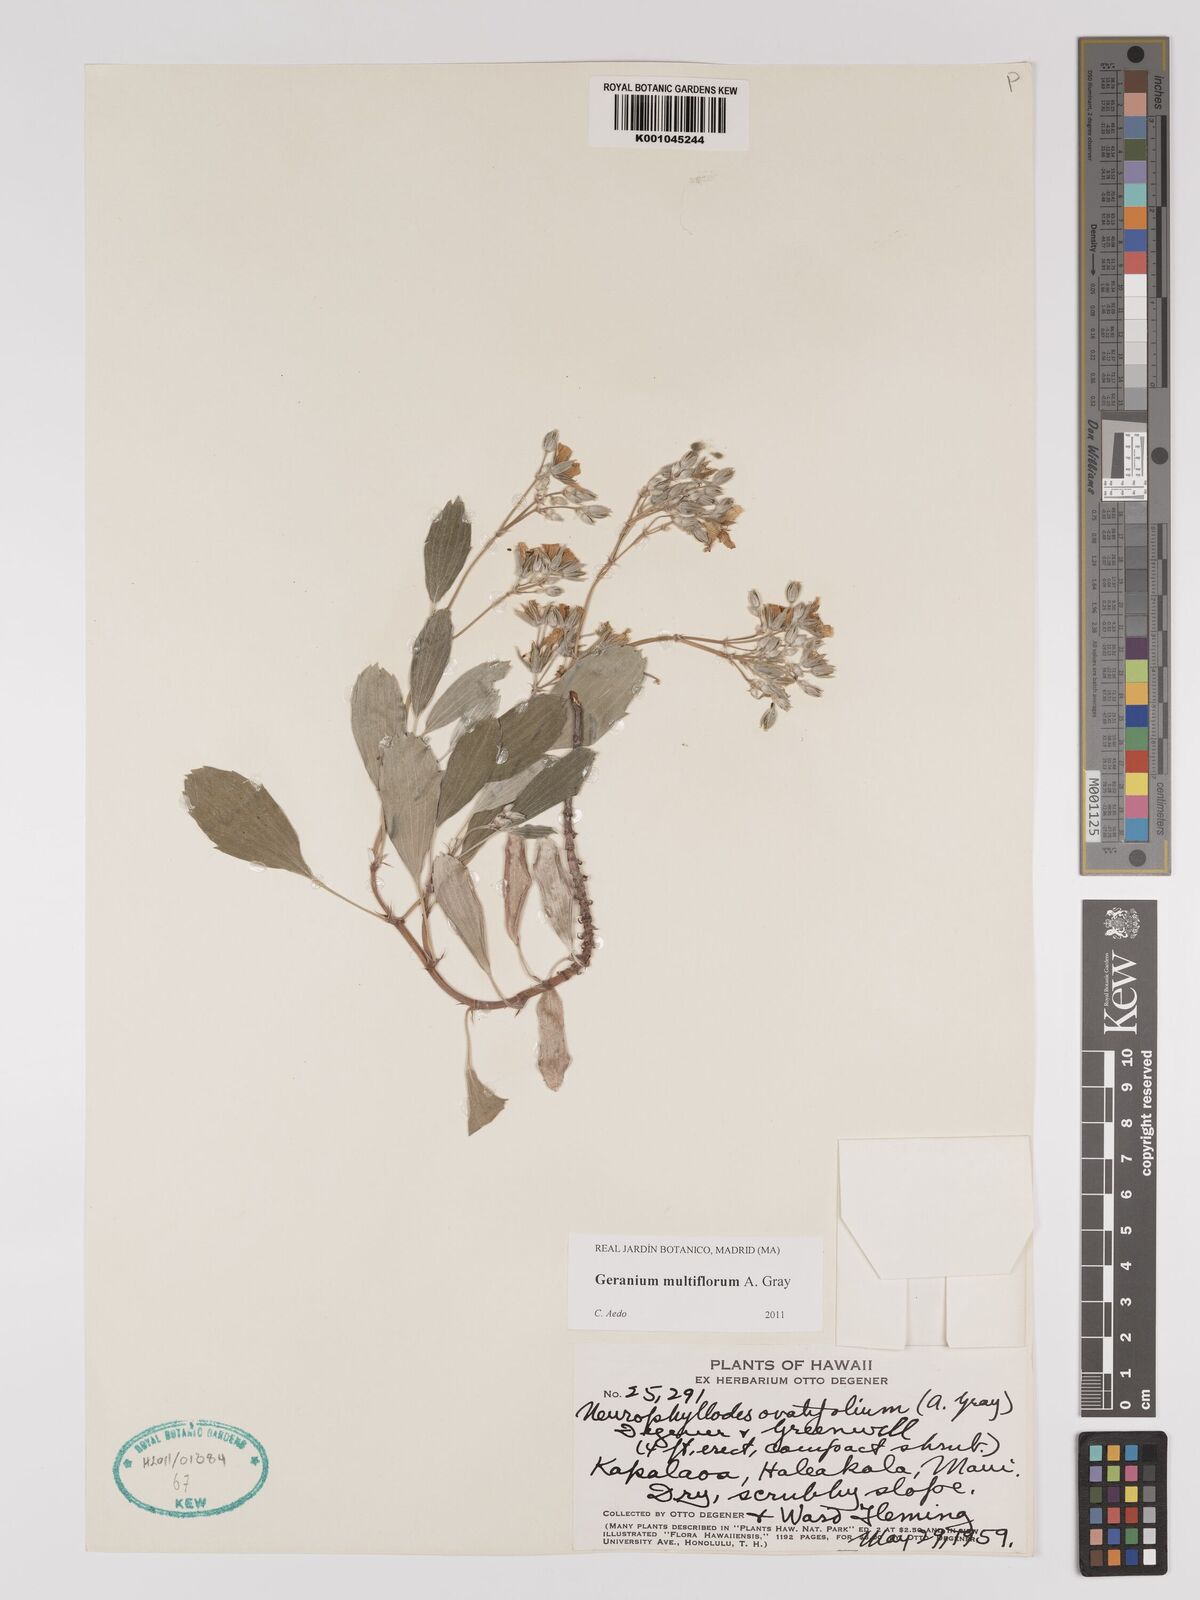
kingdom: Plantae
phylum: Tracheophyta
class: Magnoliopsida
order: Geraniales
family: Geraniaceae
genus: Geranium
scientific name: Geranium multiflorum
